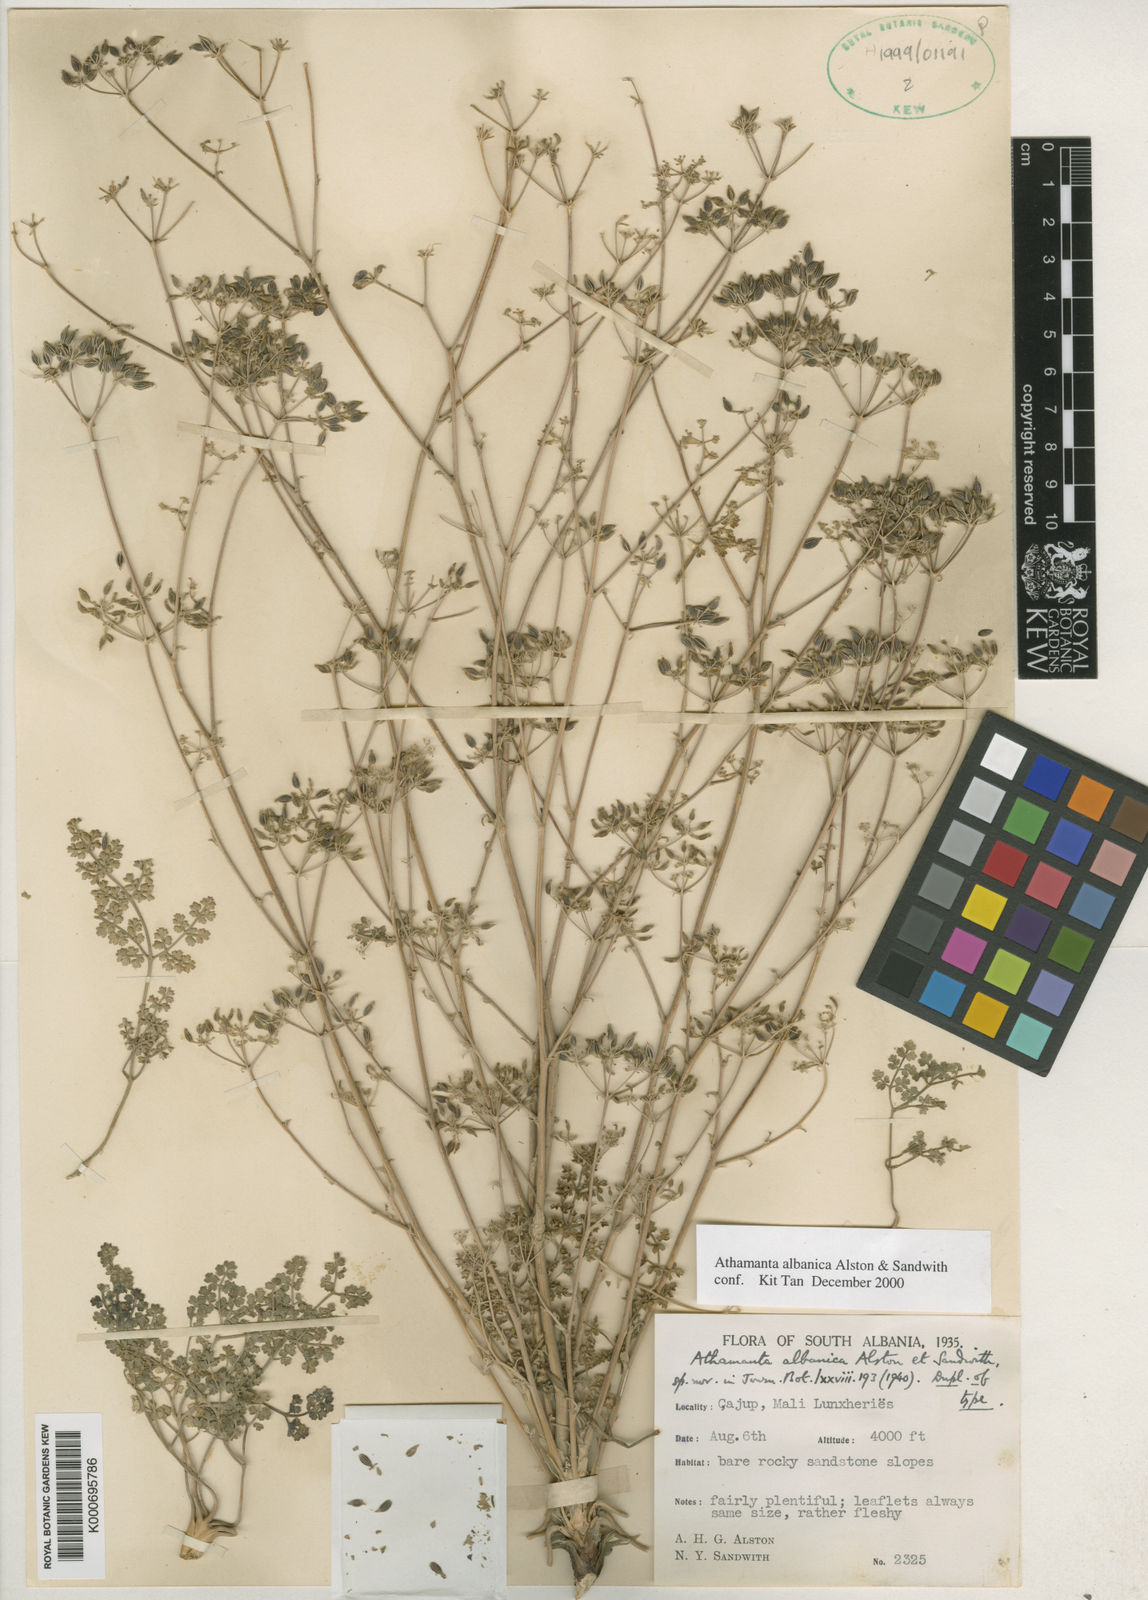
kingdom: Plantae
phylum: Tracheophyta
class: Magnoliopsida
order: Apiales
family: Apiaceae
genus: Bubon
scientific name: Bubon macedonicum
